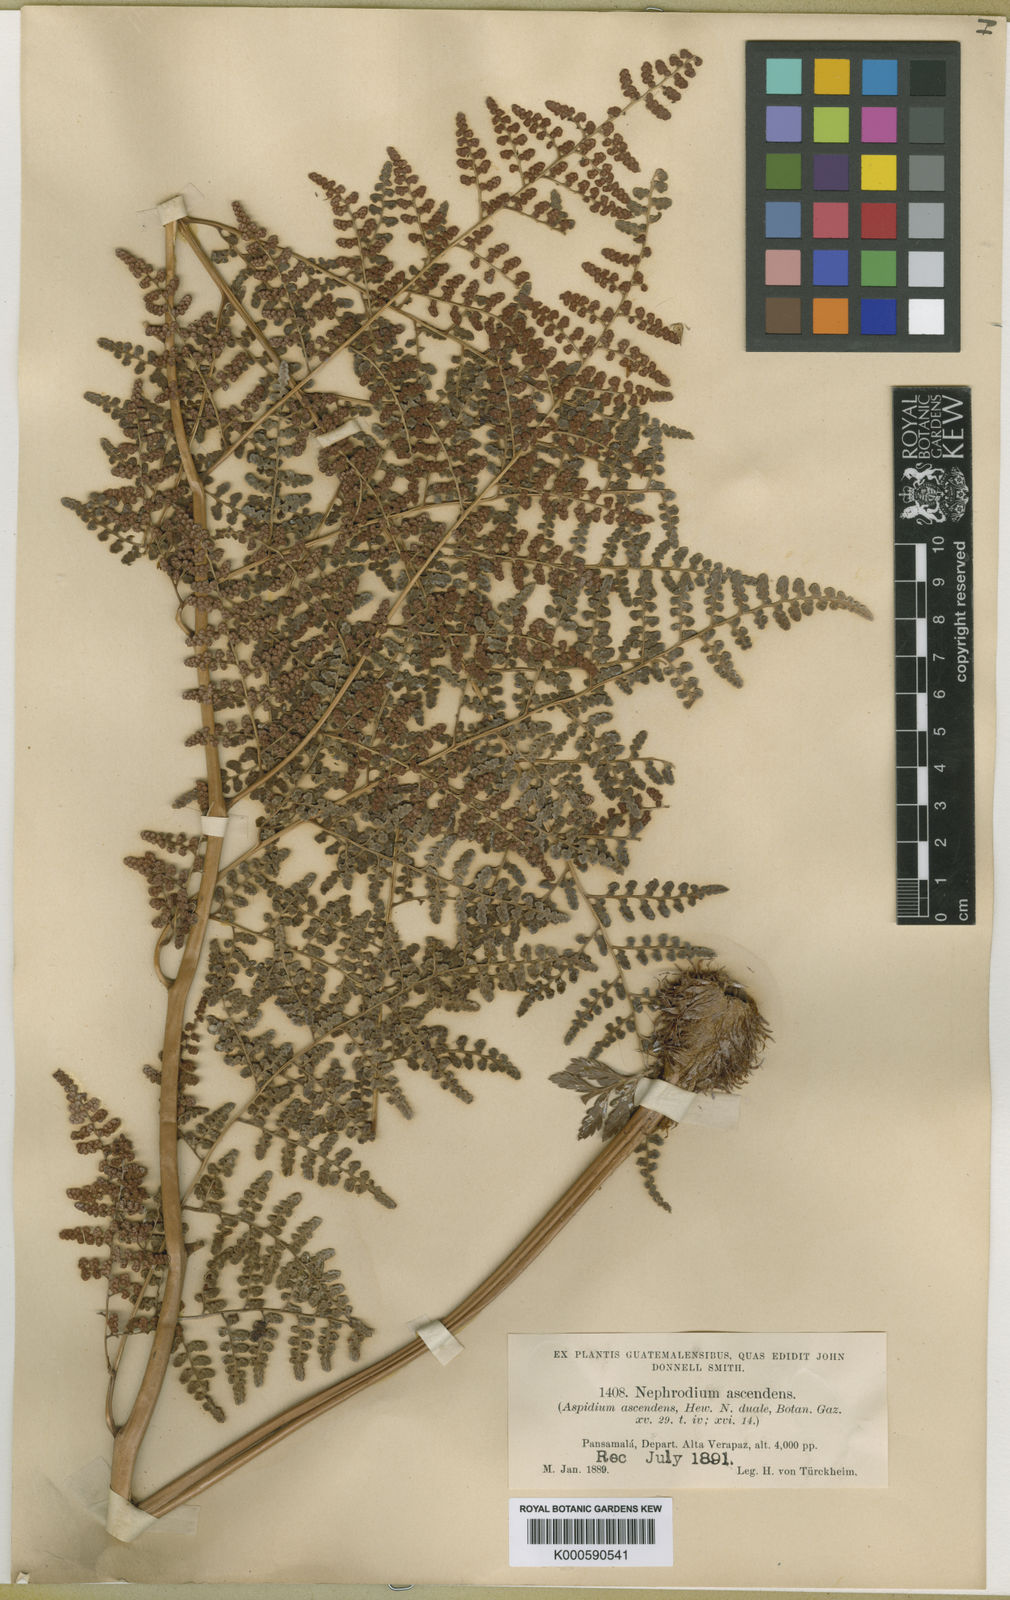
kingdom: Plantae
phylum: Tracheophyta
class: Polypodiopsida
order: Polypodiales
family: Dryopteridaceae
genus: Maxonia
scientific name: Maxonia apiifolia
